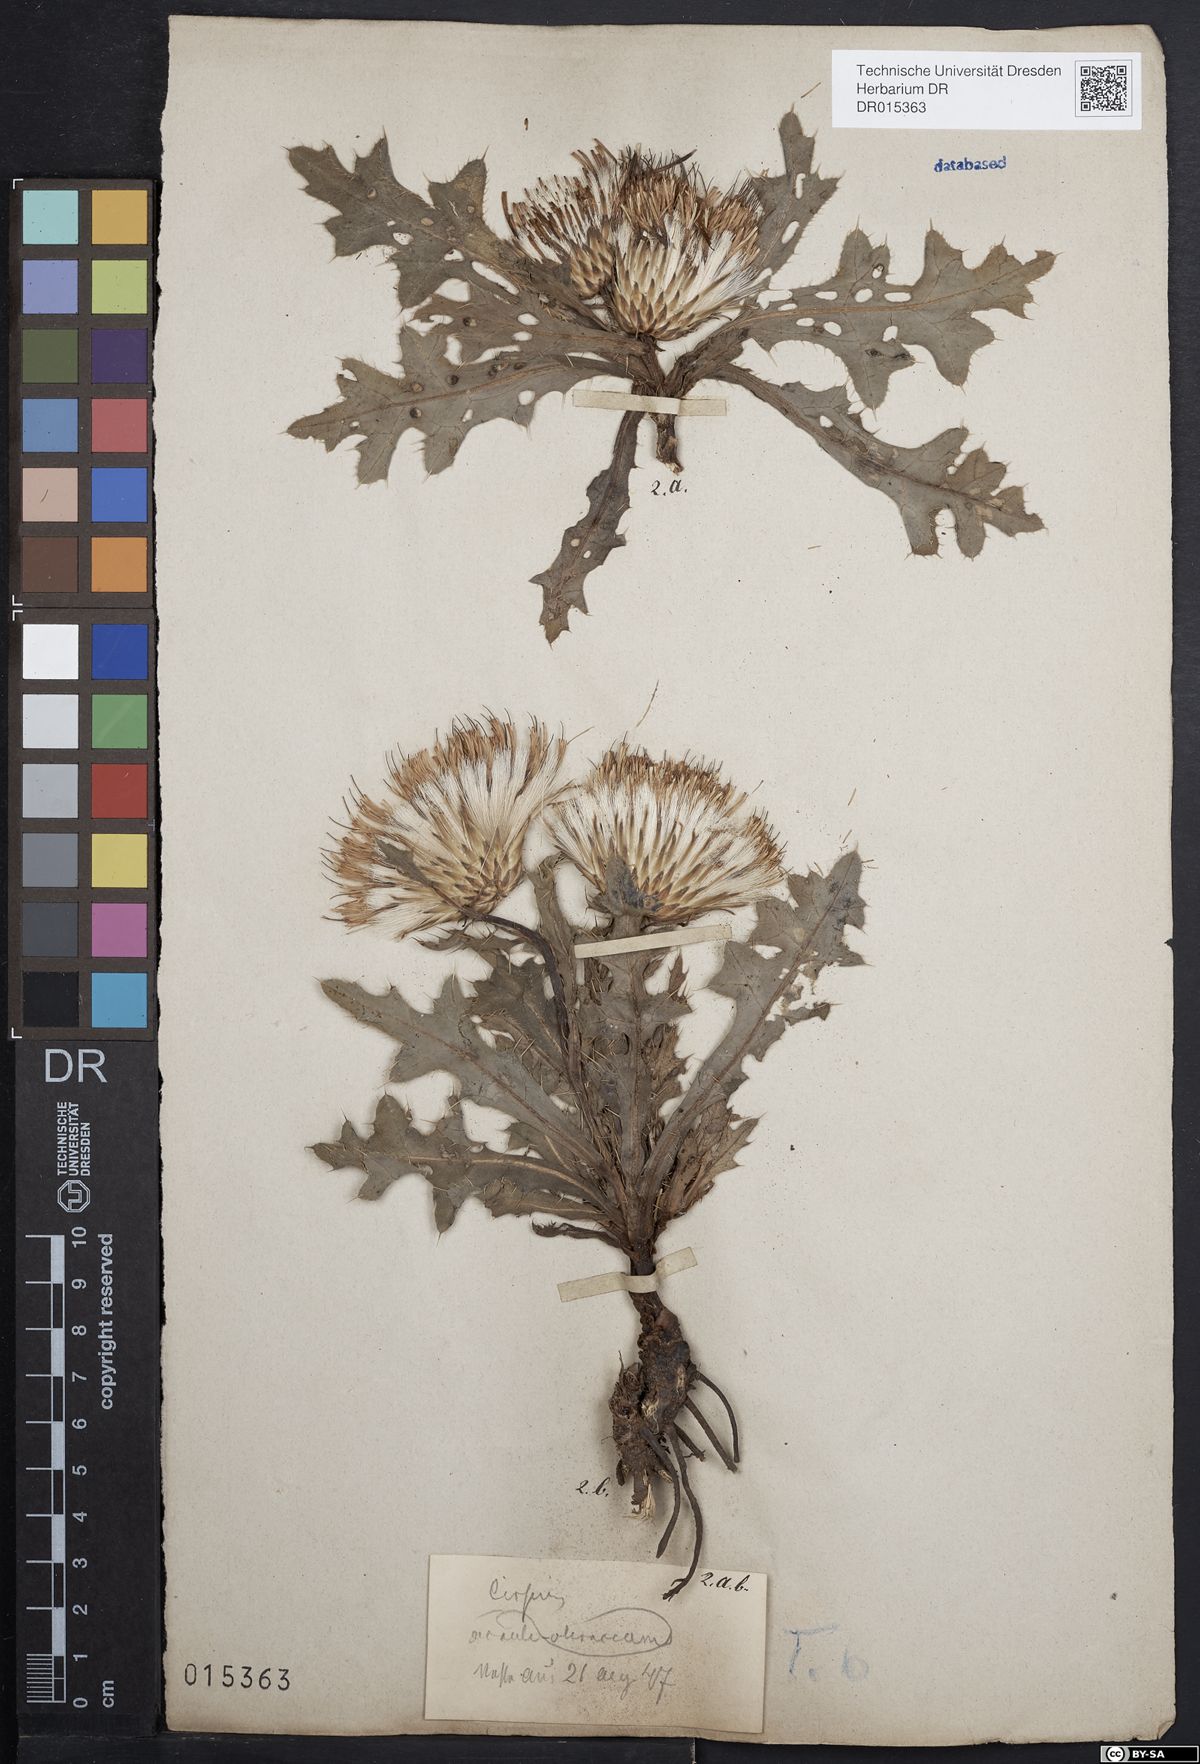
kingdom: Plantae
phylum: Tracheophyta
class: Magnoliopsida
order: Asterales
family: Asteraceae
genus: Cirsium
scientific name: Cirsium rigens
